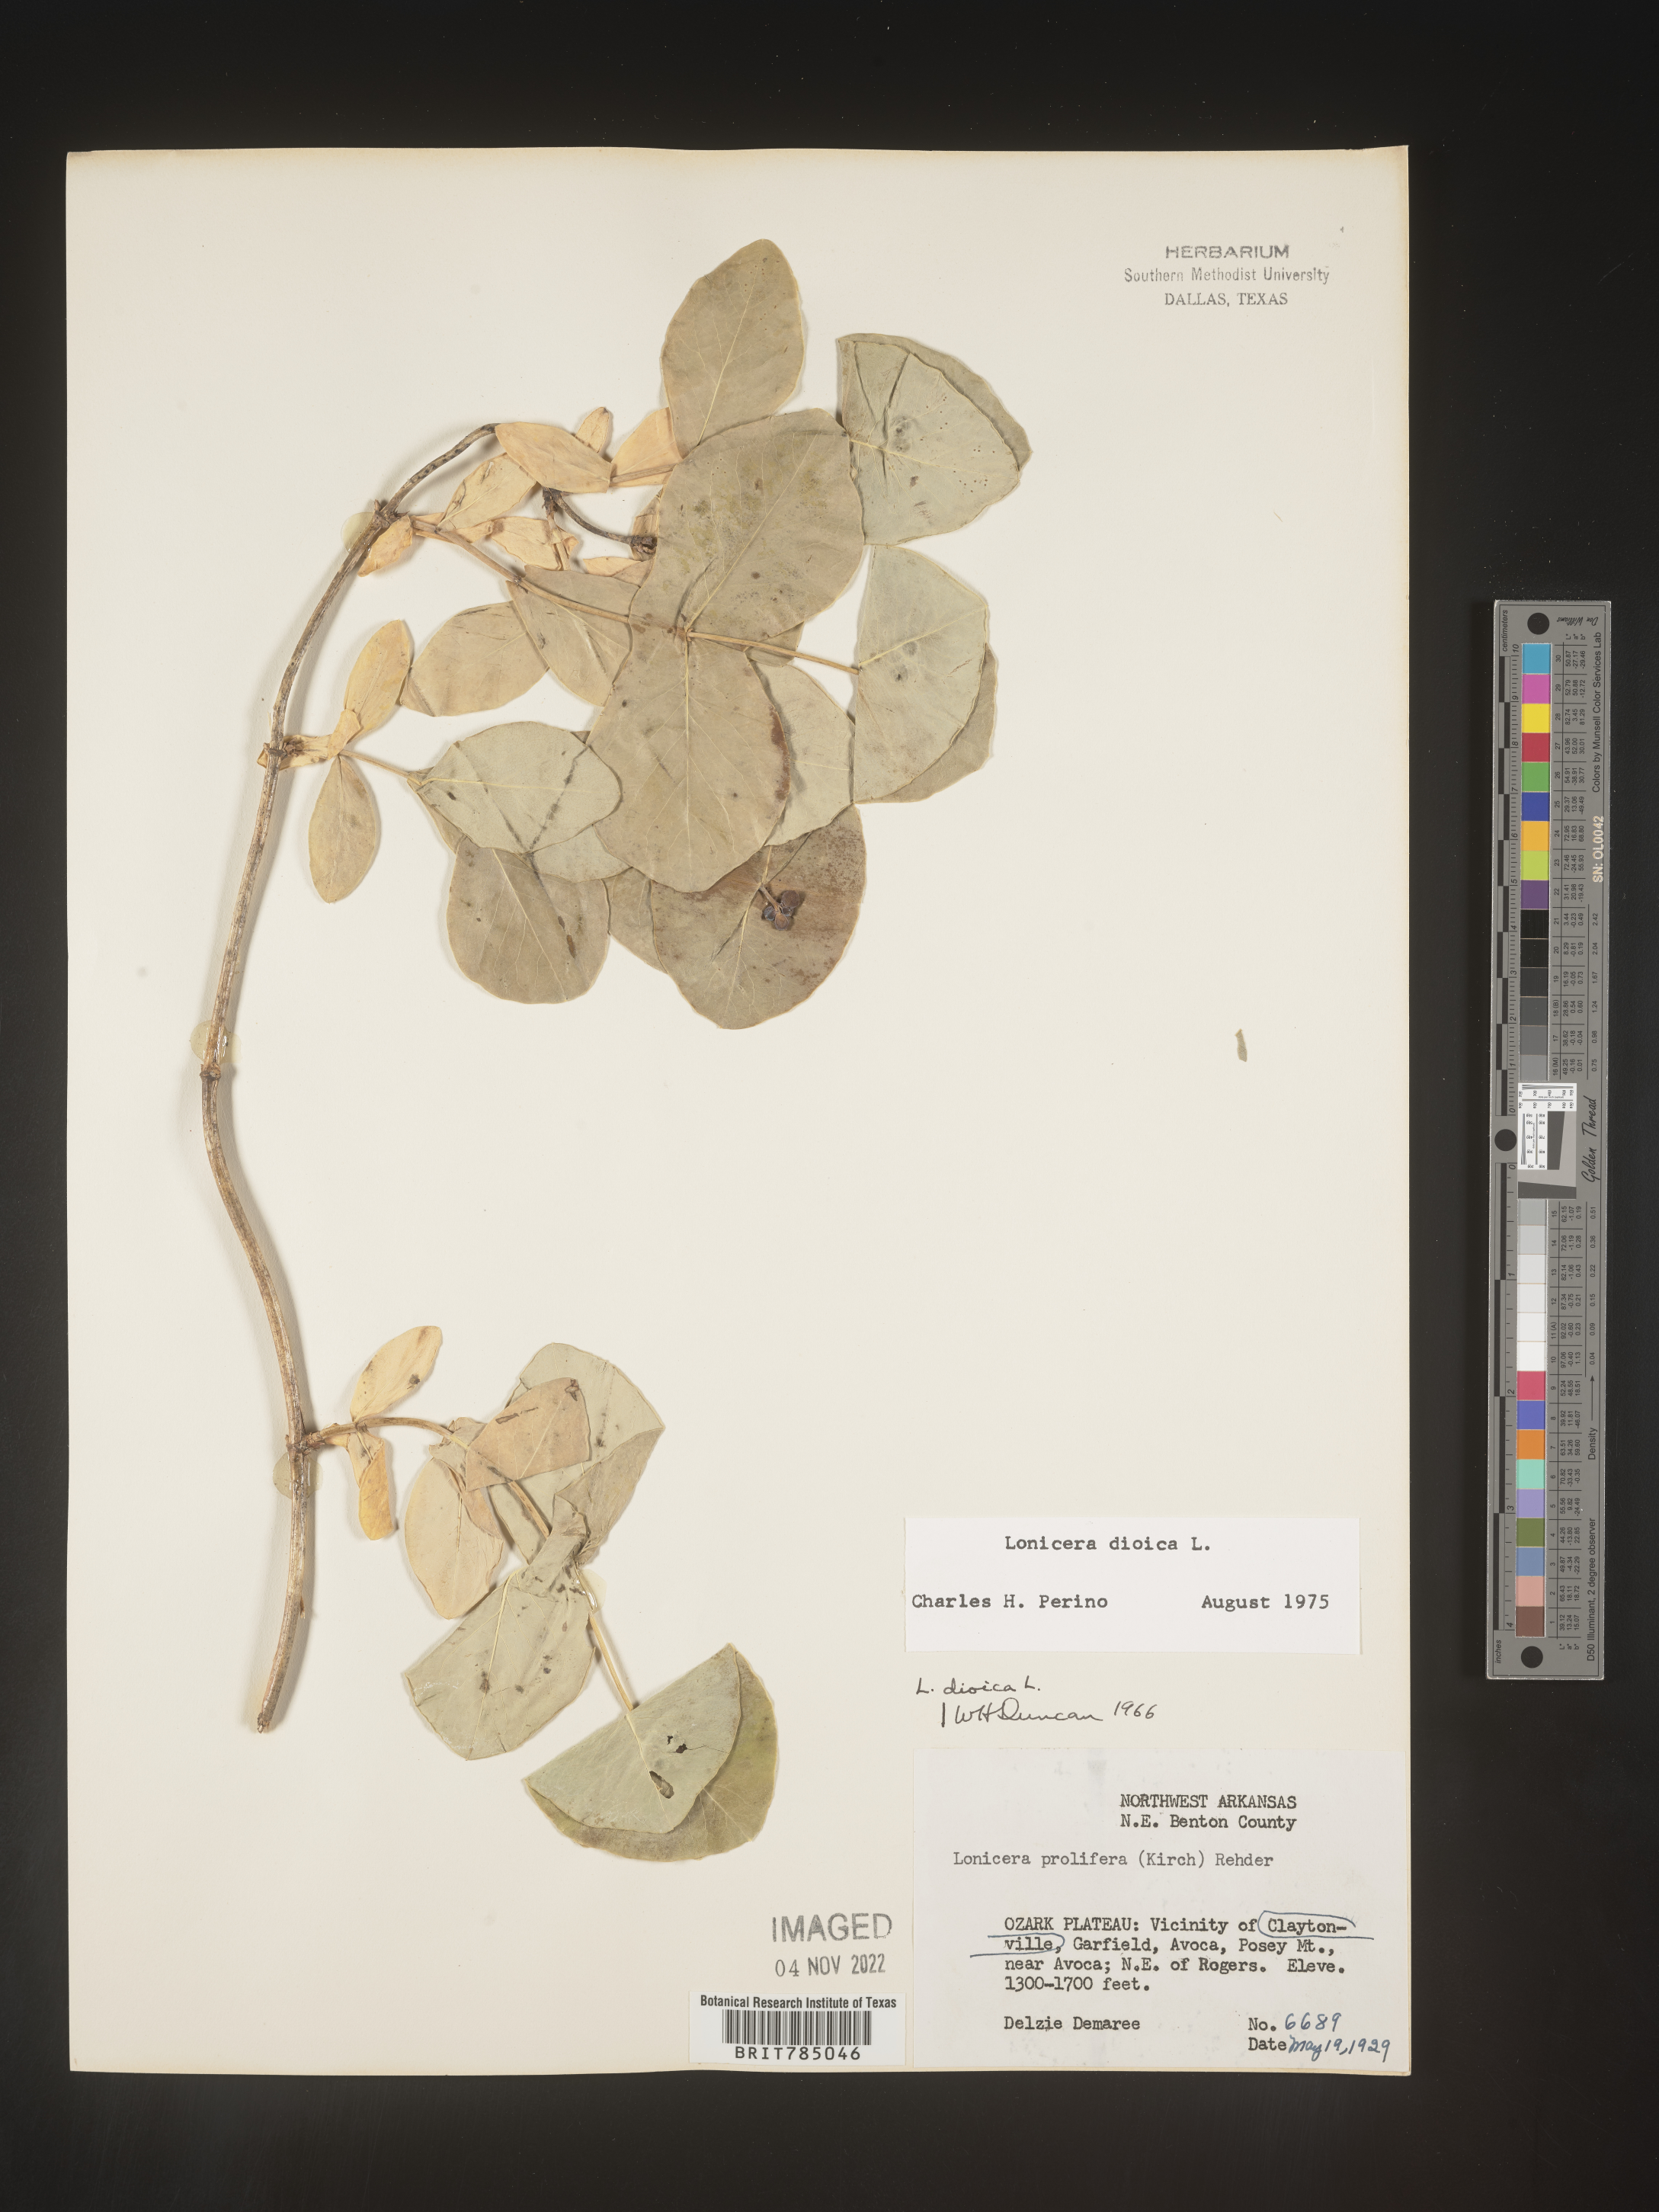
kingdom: Plantae
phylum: Tracheophyta
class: Magnoliopsida
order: Dipsacales
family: Caprifoliaceae
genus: Lonicera
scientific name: Lonicera dioica
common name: Limber honeysuckle
